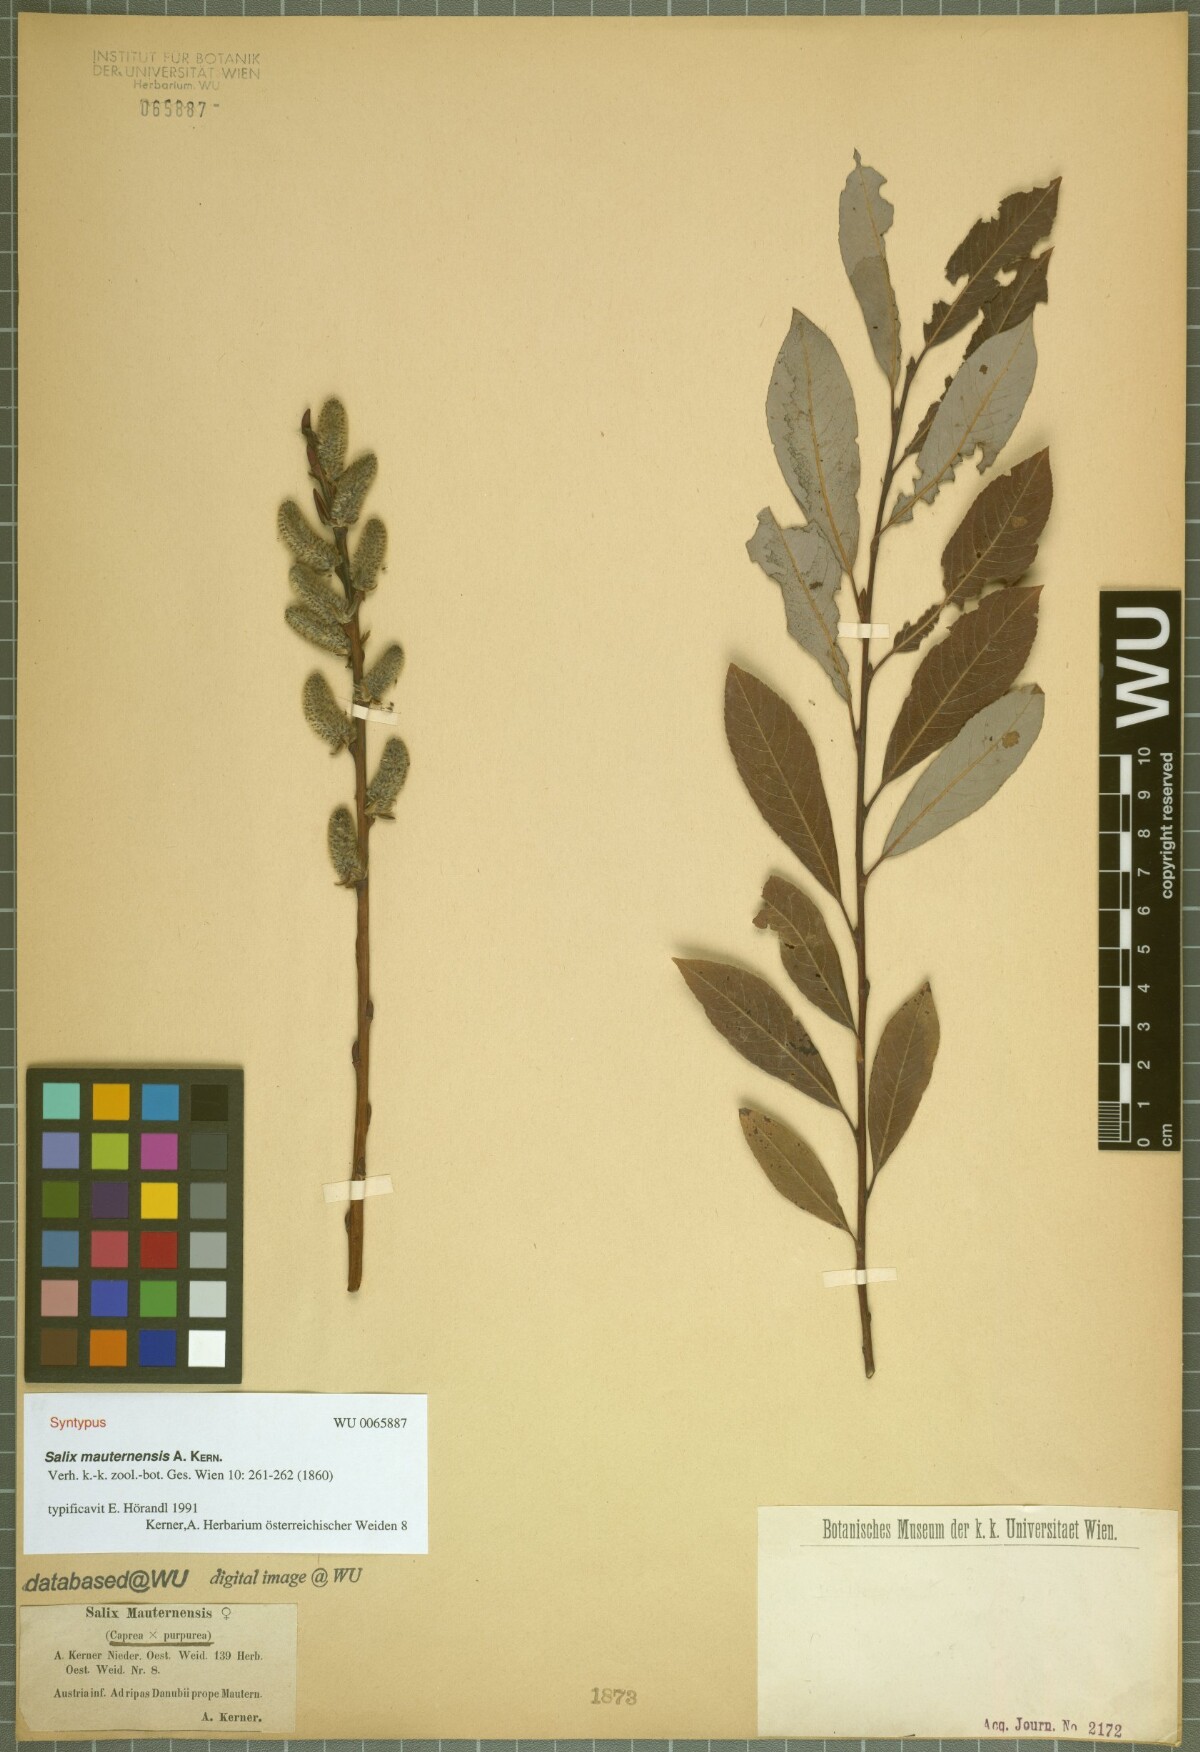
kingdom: Plantae
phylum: Tracheophyta
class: Magnoliopsida
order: Malpighiales
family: Salicaceae
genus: Salix
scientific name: Salix wimmeriana
